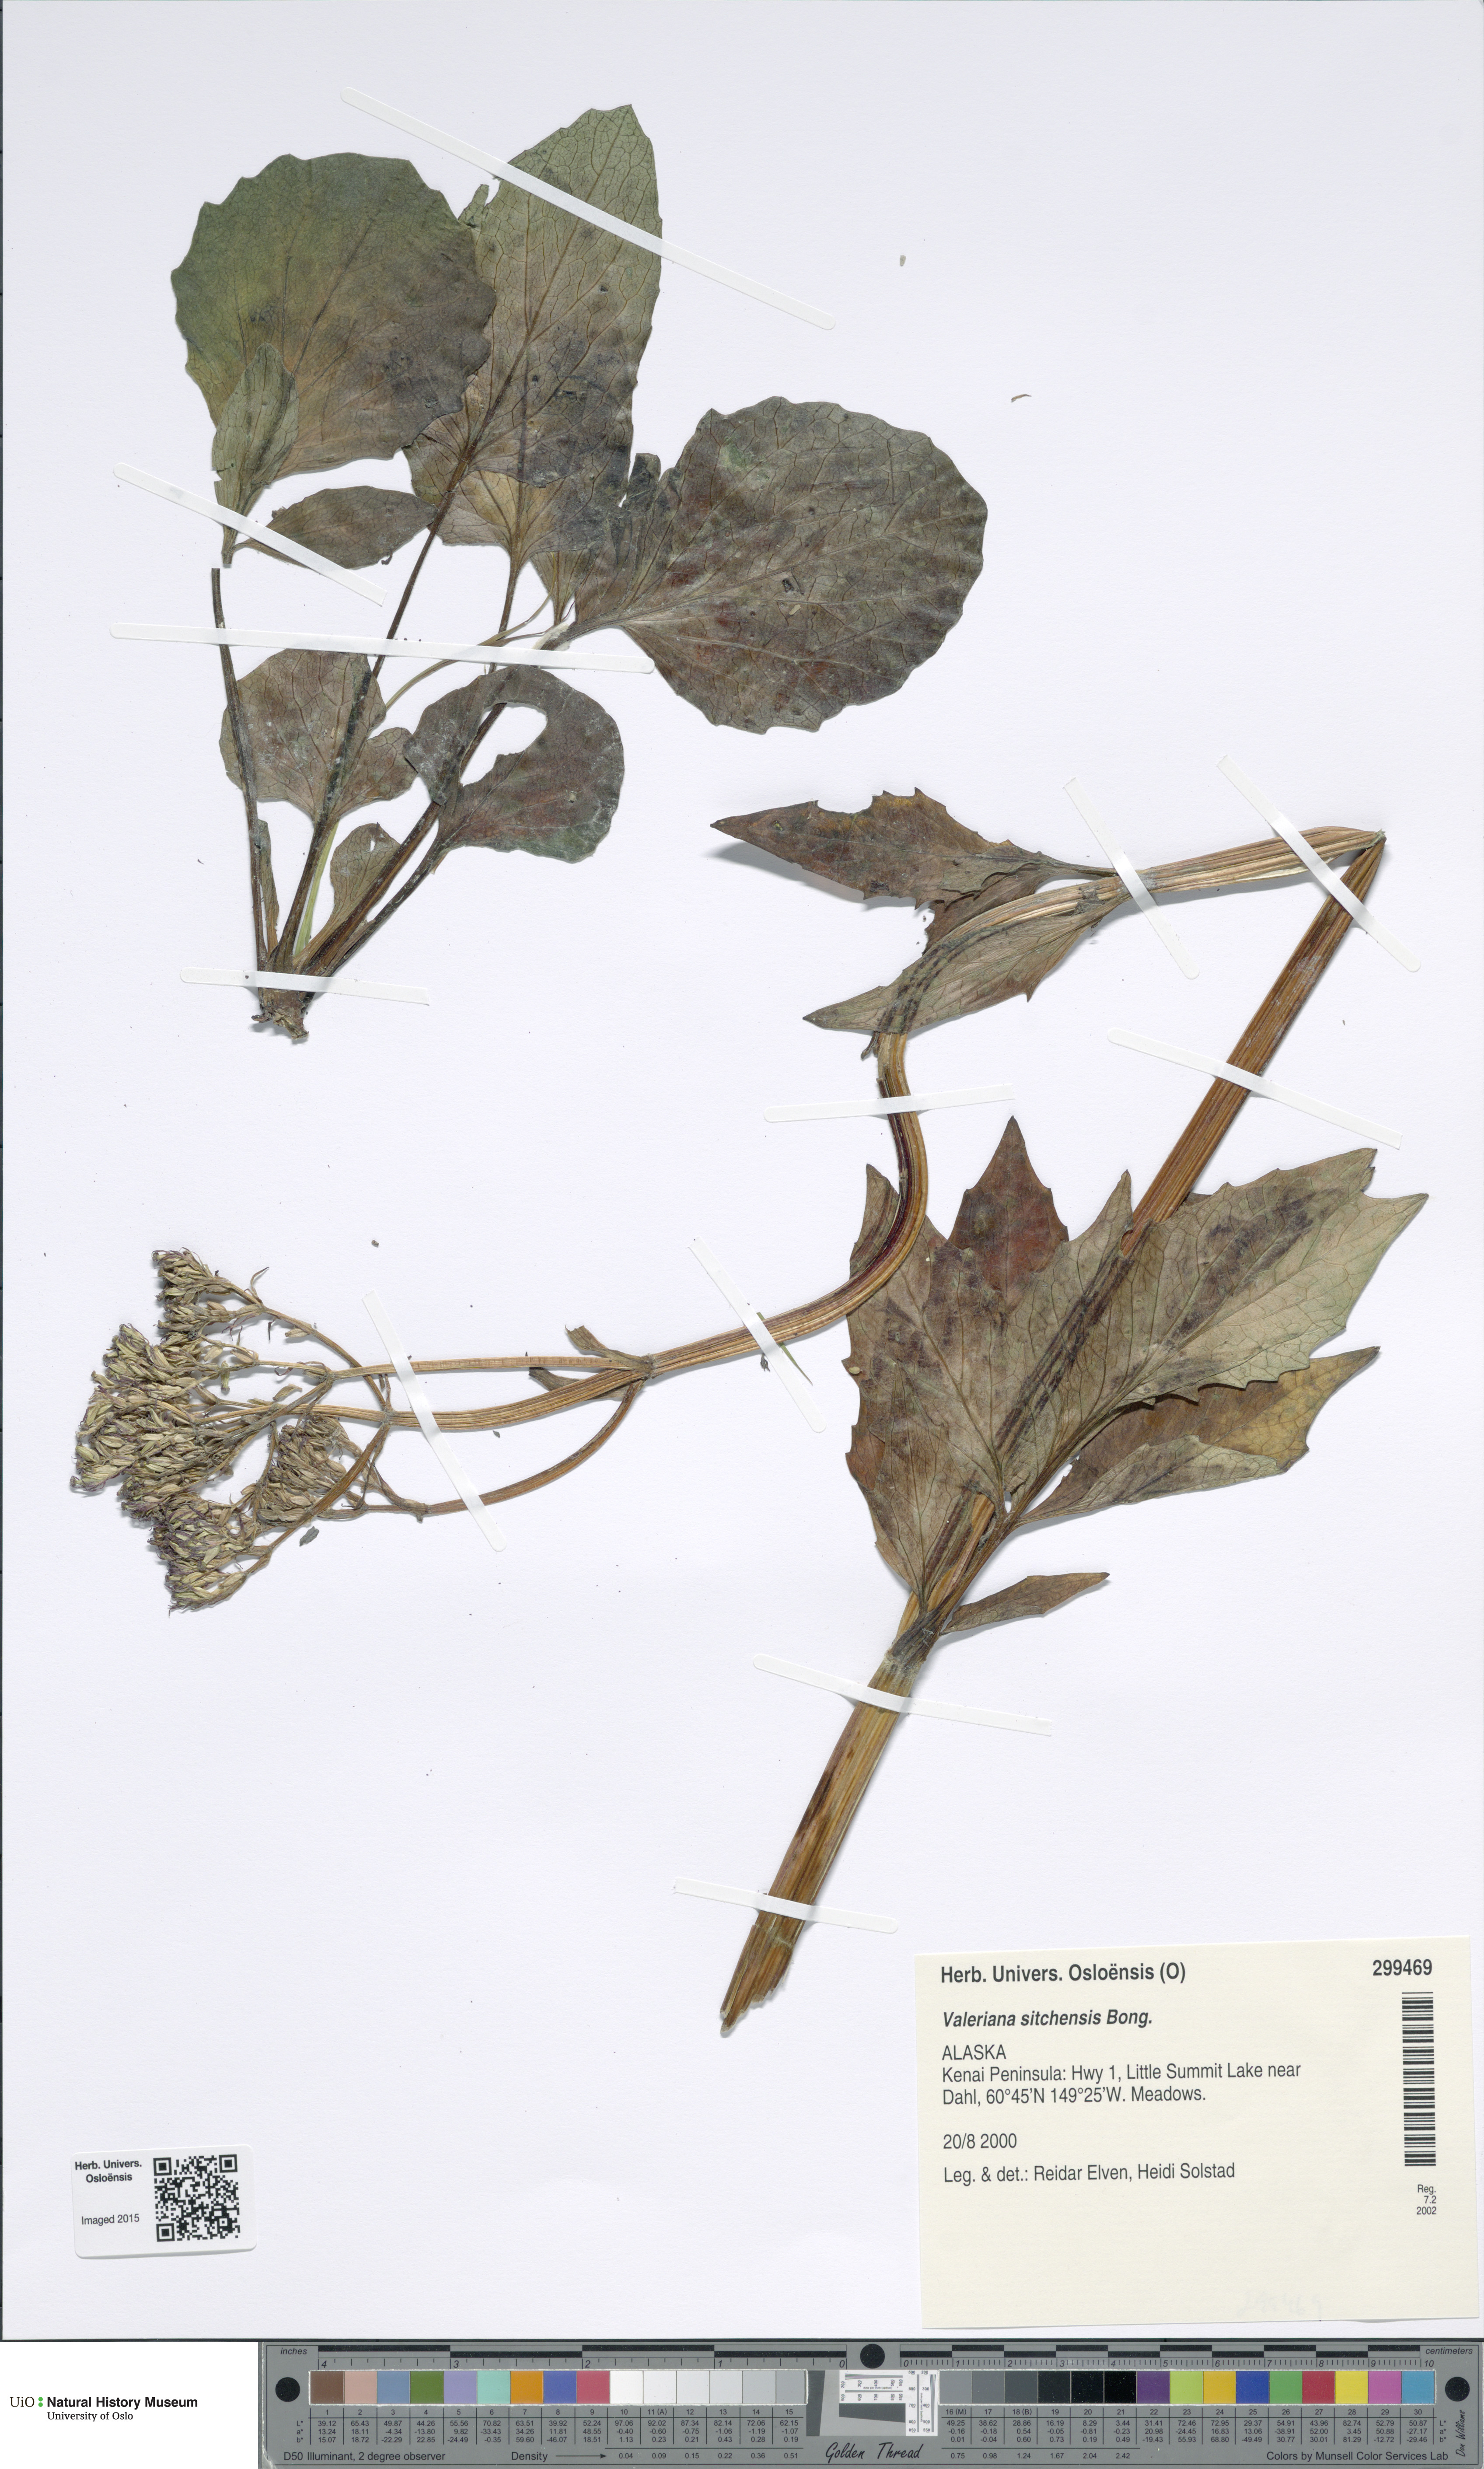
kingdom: Plantae
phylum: Tracheophyta
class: Magnoliopsida
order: Dipsacales
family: Caprifoliaceae
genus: Valeriana
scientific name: Valeriana sitchensis
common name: Pacific valerian
